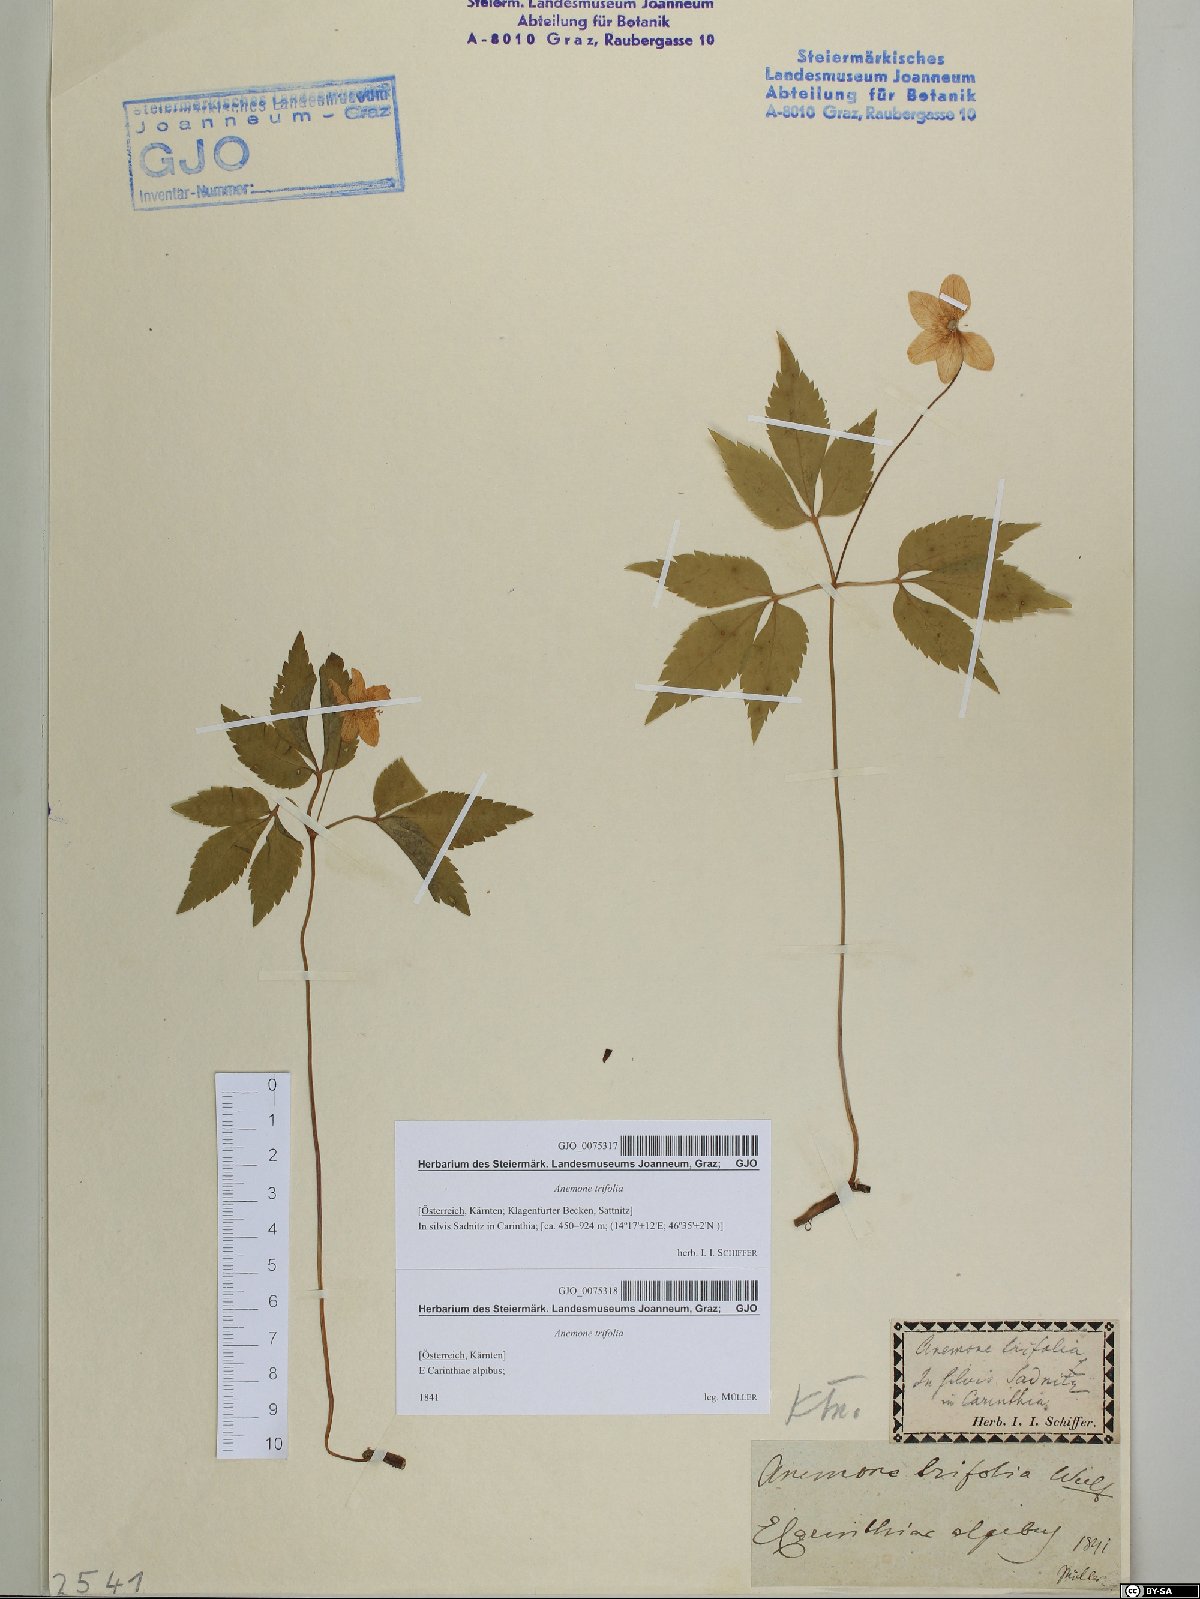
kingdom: Plantae
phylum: Tracheophyta
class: Magnoliopsida
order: Ranunculales
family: Ranunculaceae
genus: Anemone
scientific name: Anemone trifolia
